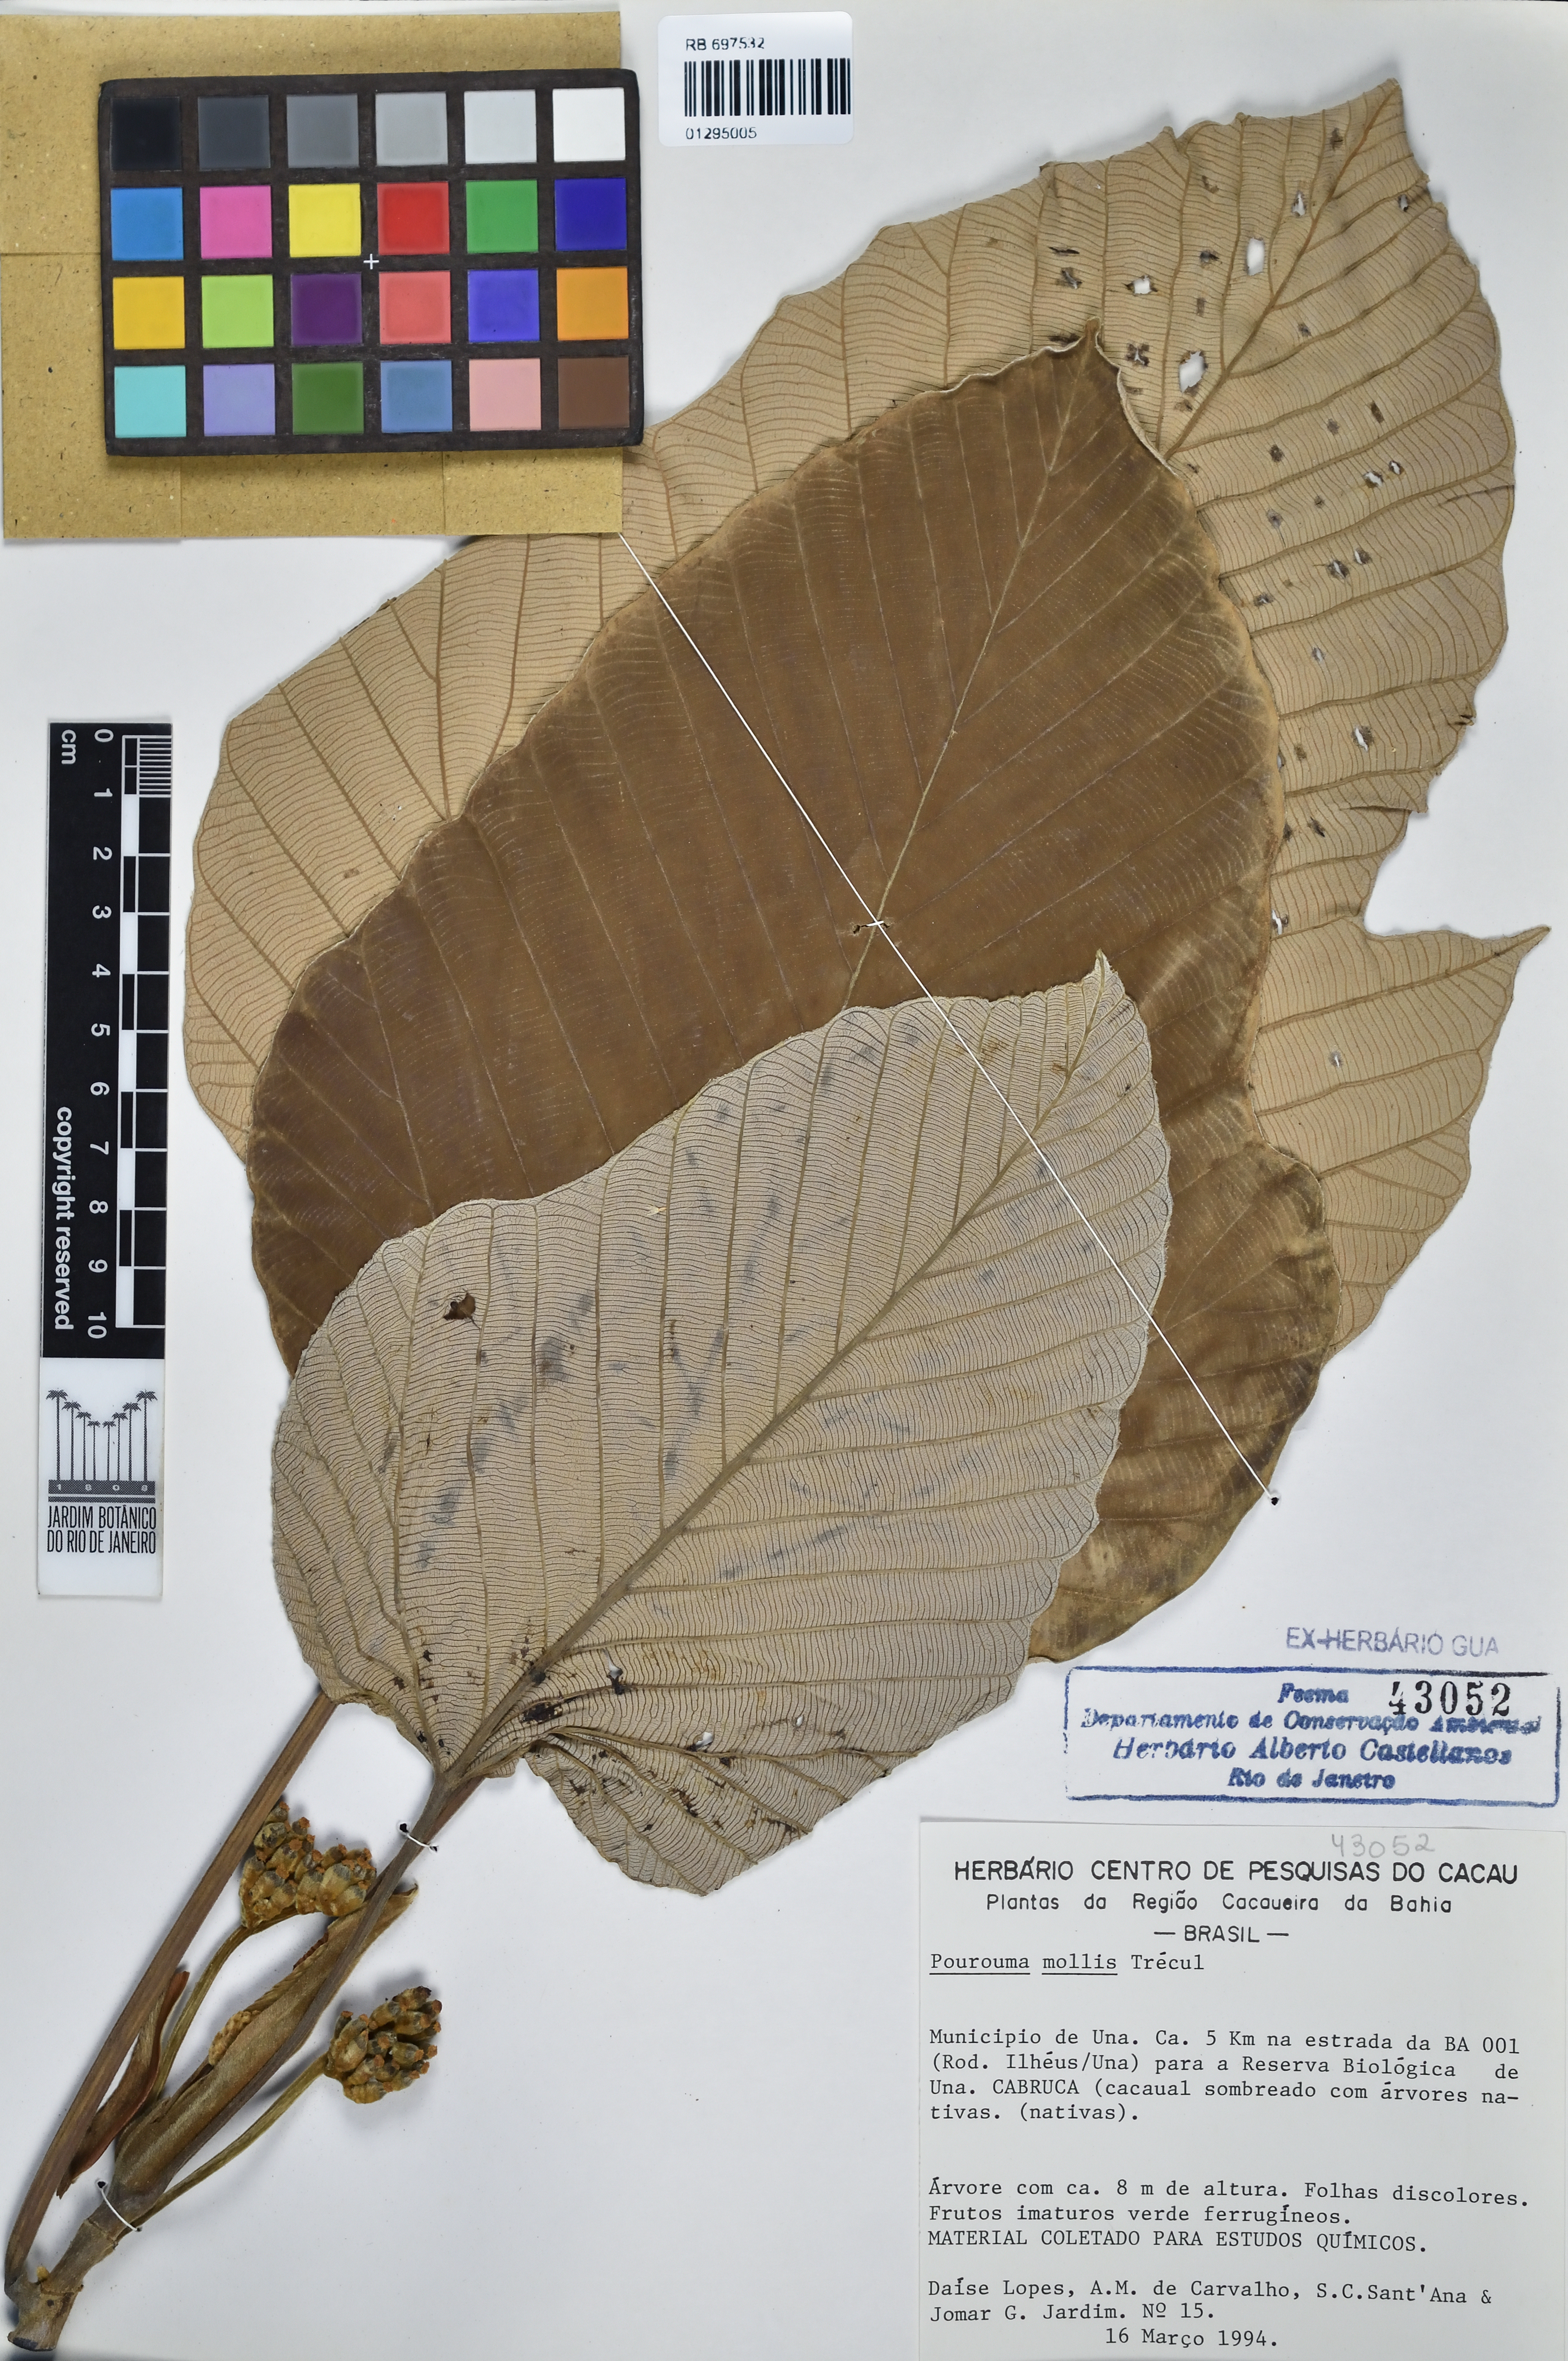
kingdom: Plantae
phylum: Tracheophyta
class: Magnoliopsida
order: Rosales
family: Urticaceae
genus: Pourouma
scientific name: Pourouma mollis
